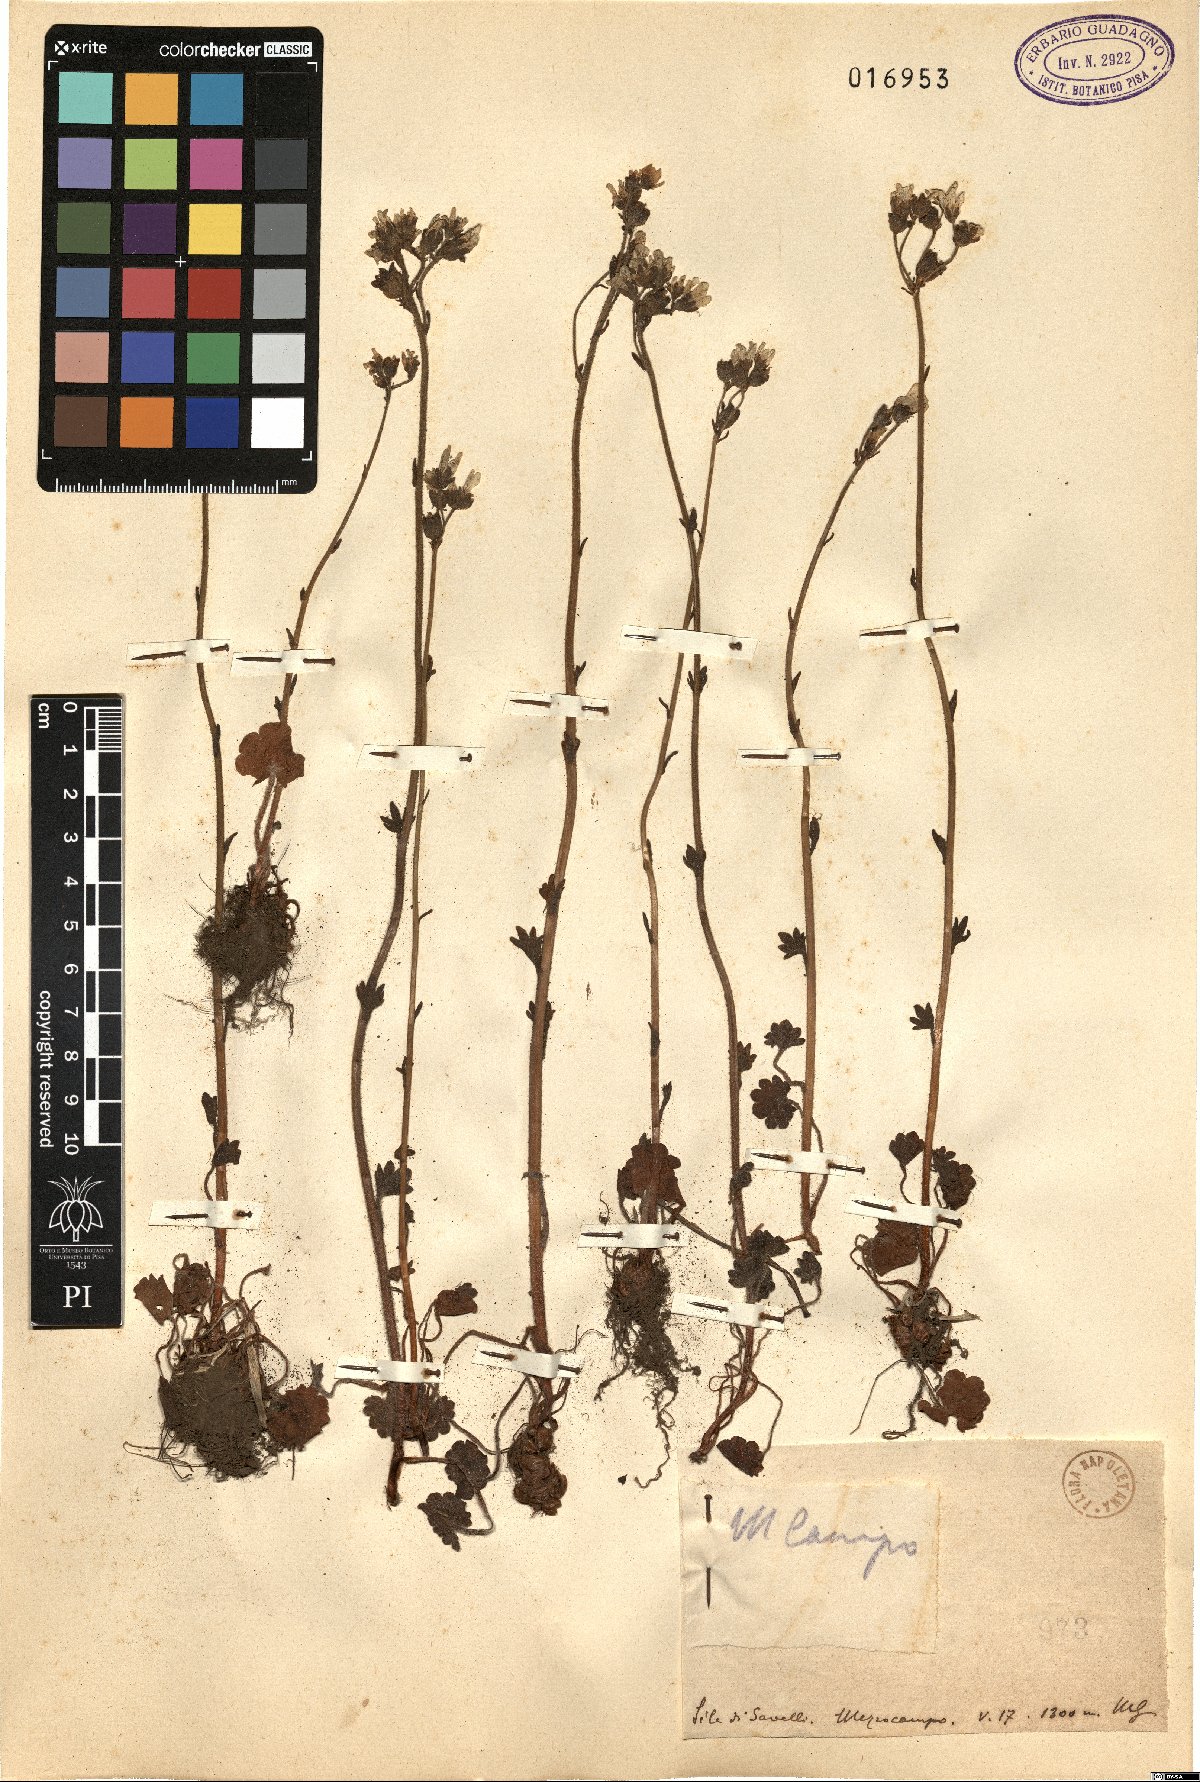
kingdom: Plantae
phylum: Tracheophyta
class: Magnoliopsida
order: Saxifragales
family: Saxifragaceae
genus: Saxifraga
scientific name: Saxifraga
